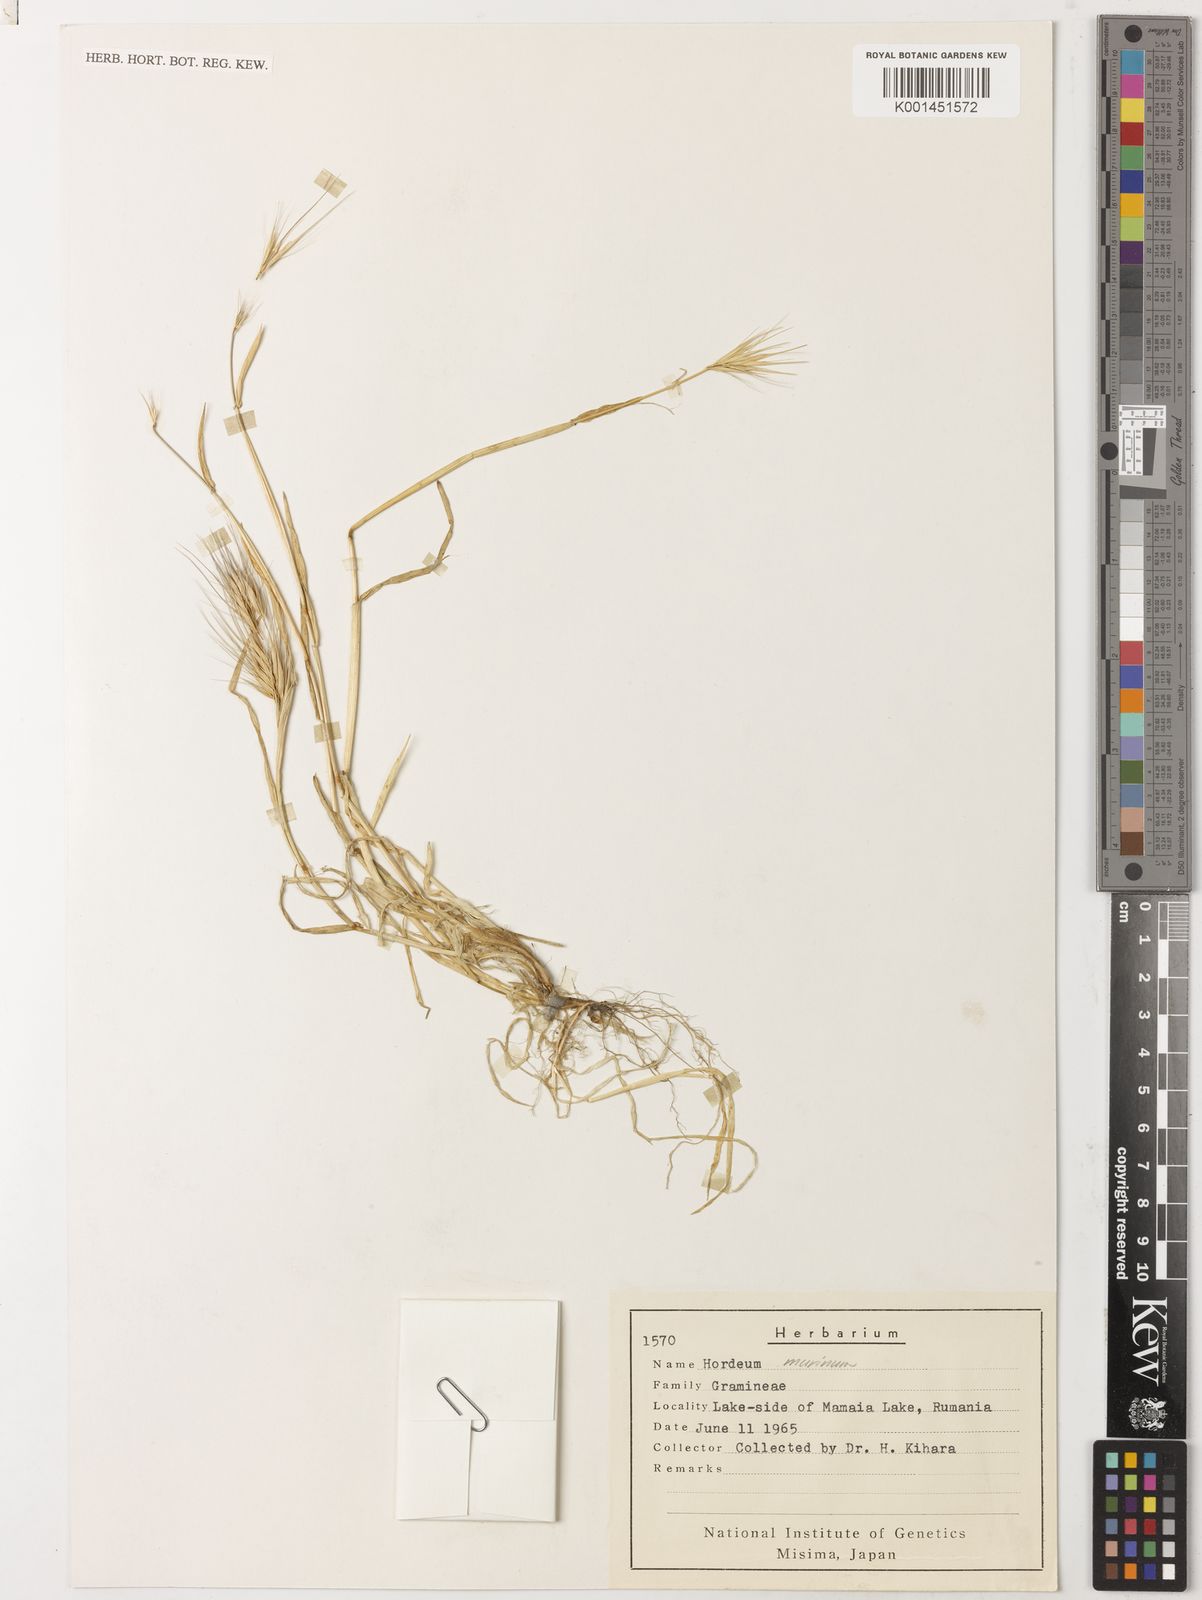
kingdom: Plantae
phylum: Tracheophyta
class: Liliopsida
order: Poales
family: Poaceae
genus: Hordeum
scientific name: Hordeum marinum
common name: Sea barley
